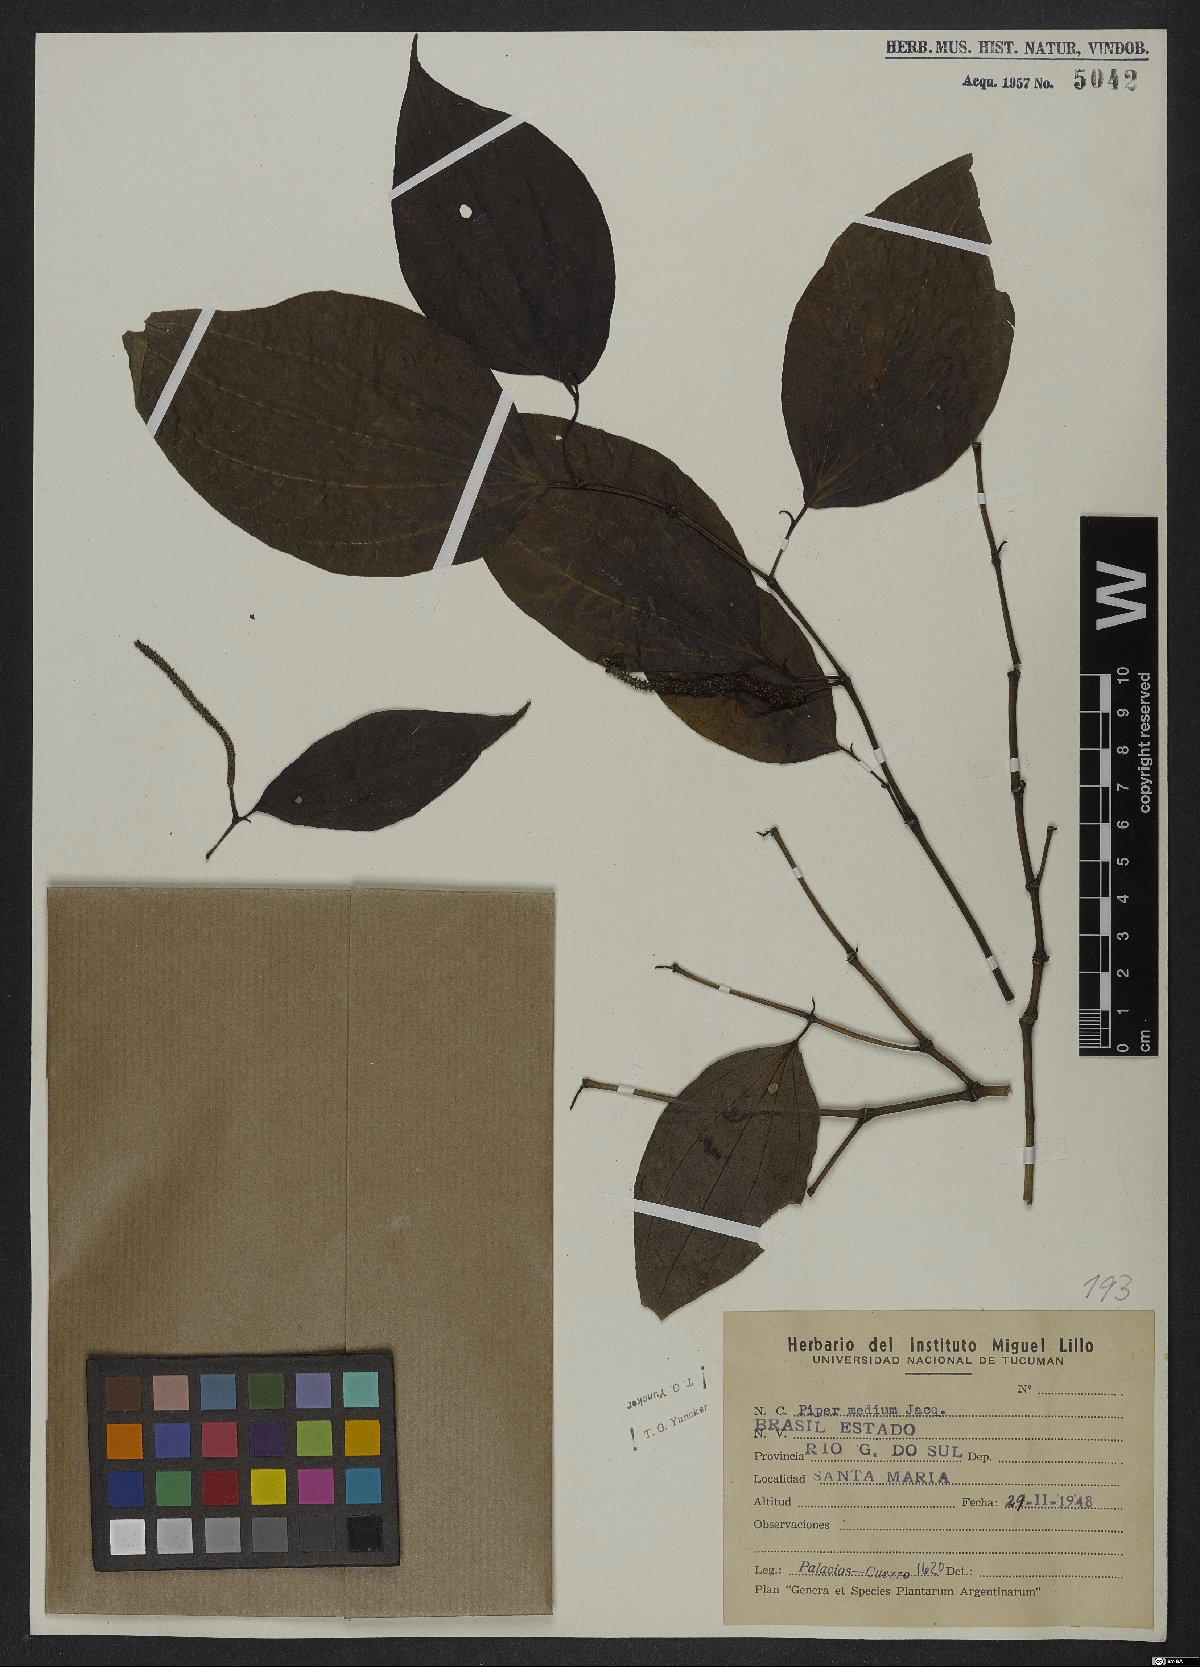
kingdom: Plantae
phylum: Tracheophyta
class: Magnoliopsida
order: Piperales
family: Piperaceae
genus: Piper
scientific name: Piper amalago
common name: Pepper-elder
